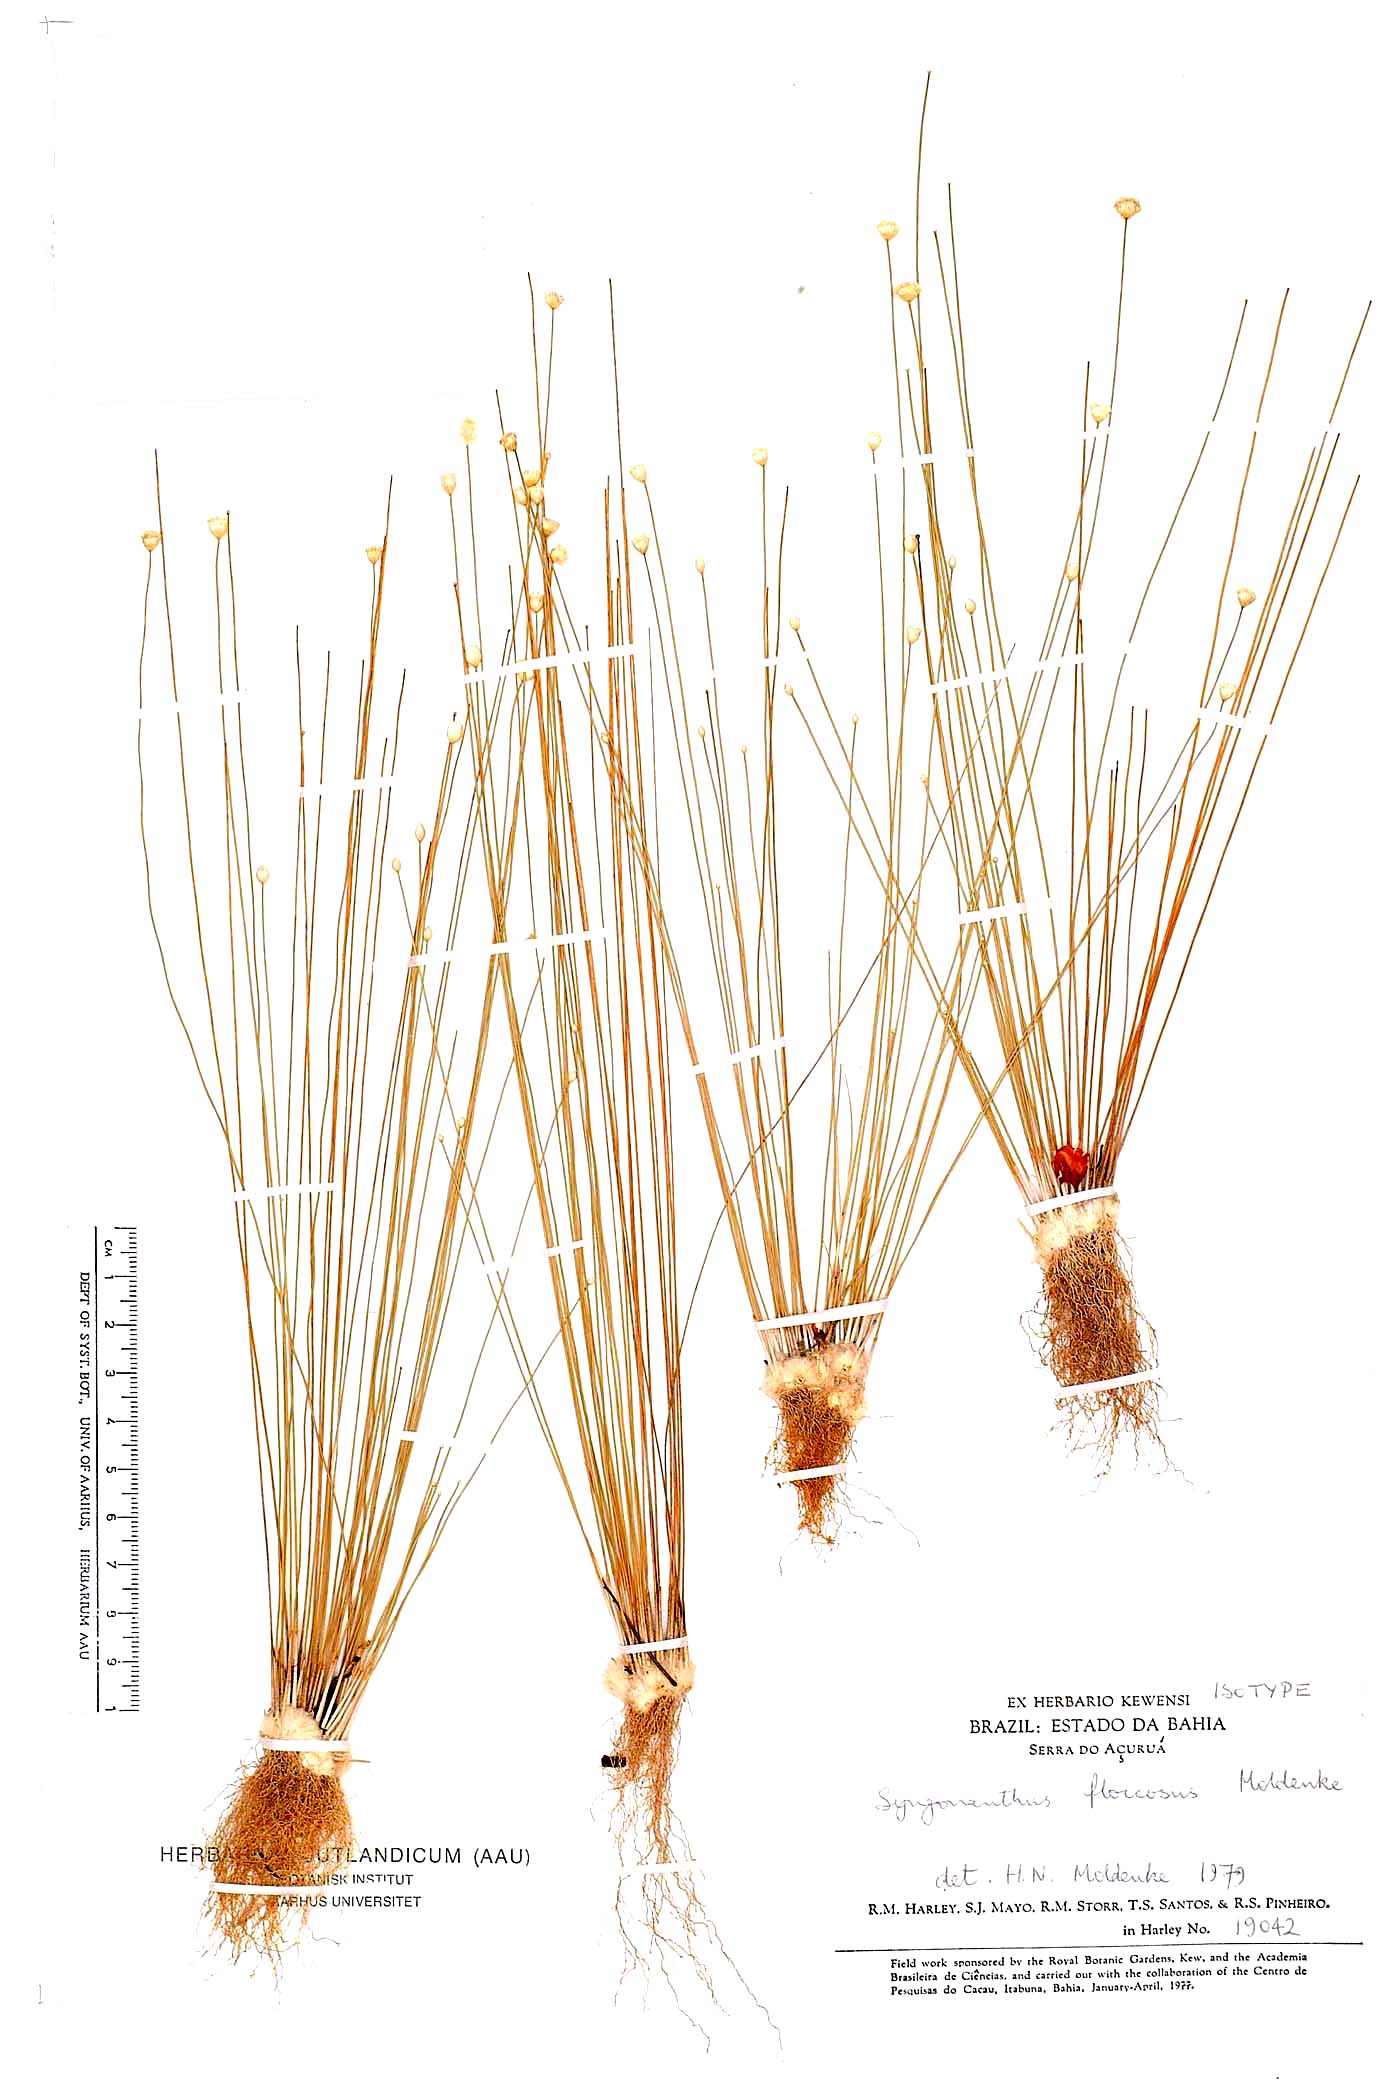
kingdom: Plantae
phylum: Tracheophyta
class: Liliopsida
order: Poales
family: Eriocaulaceae
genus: Comanthera
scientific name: Comanthera floccosa
